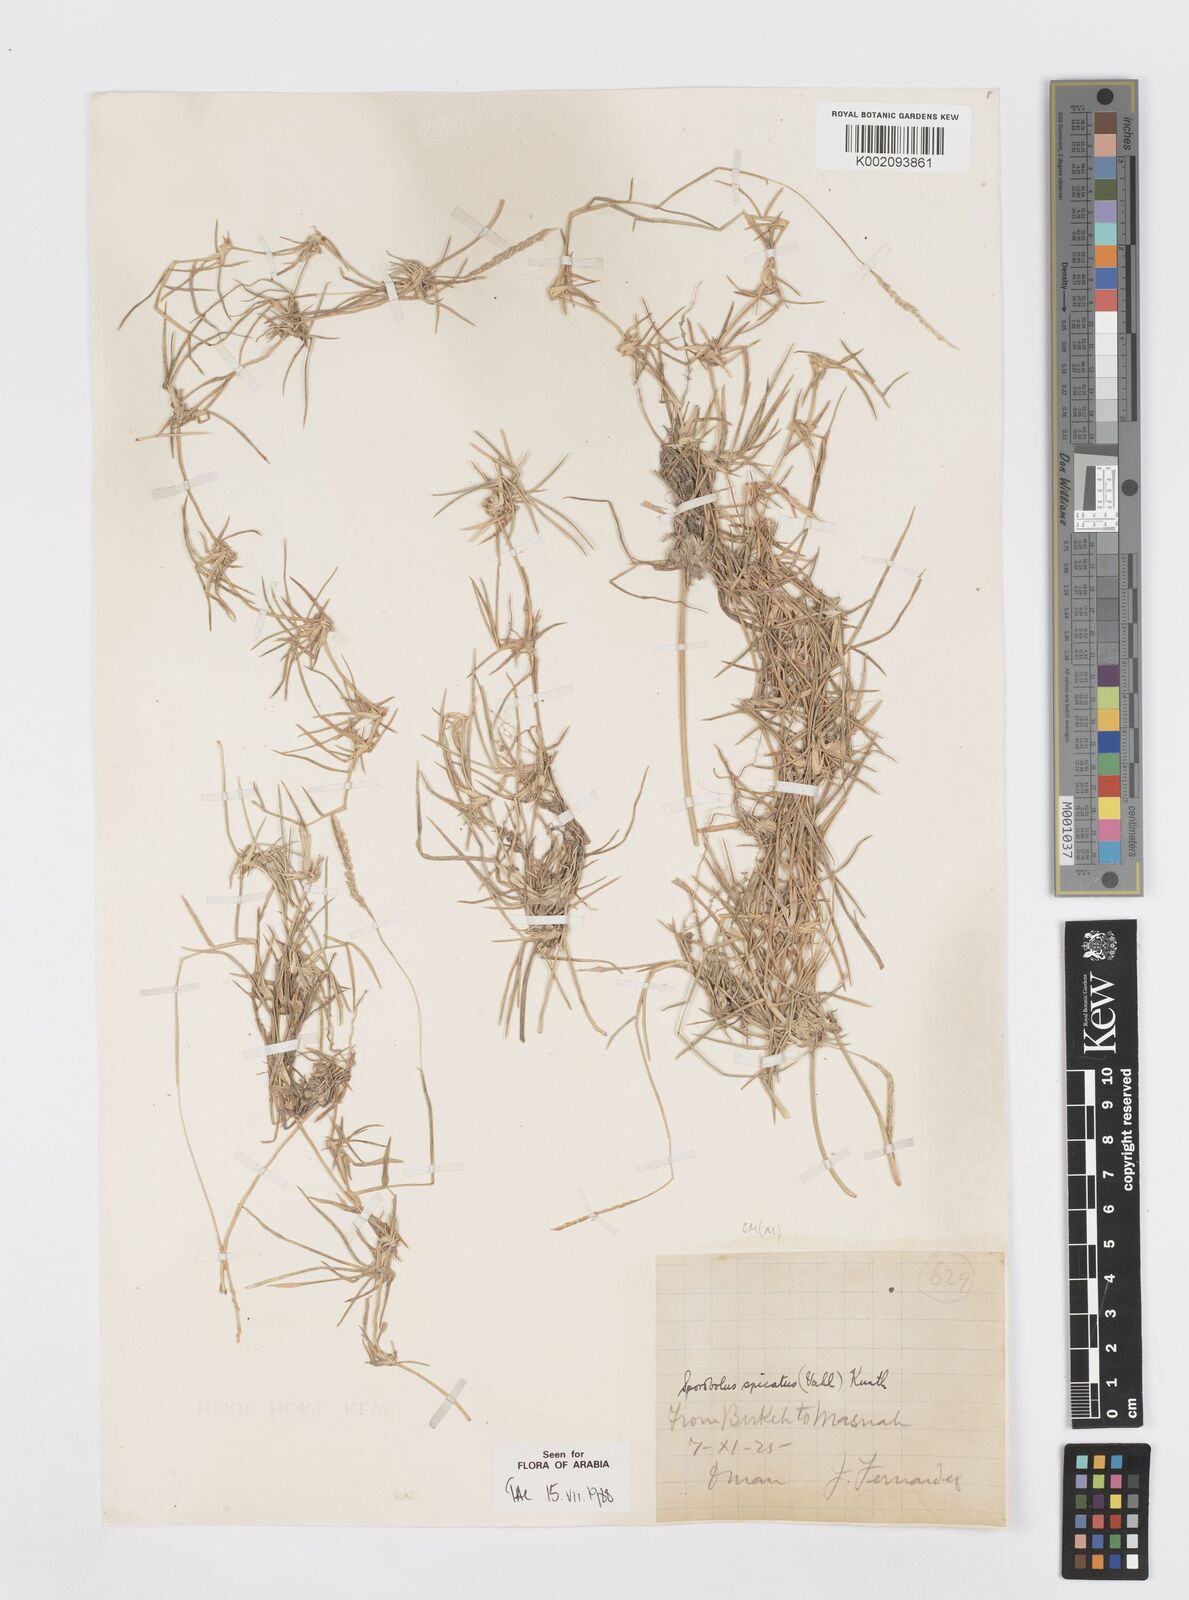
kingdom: Plantae
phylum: Tracheophyta
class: Liliopsida
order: Poales
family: Poaceae
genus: Sporobolus
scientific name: Sporobolus spicatus
